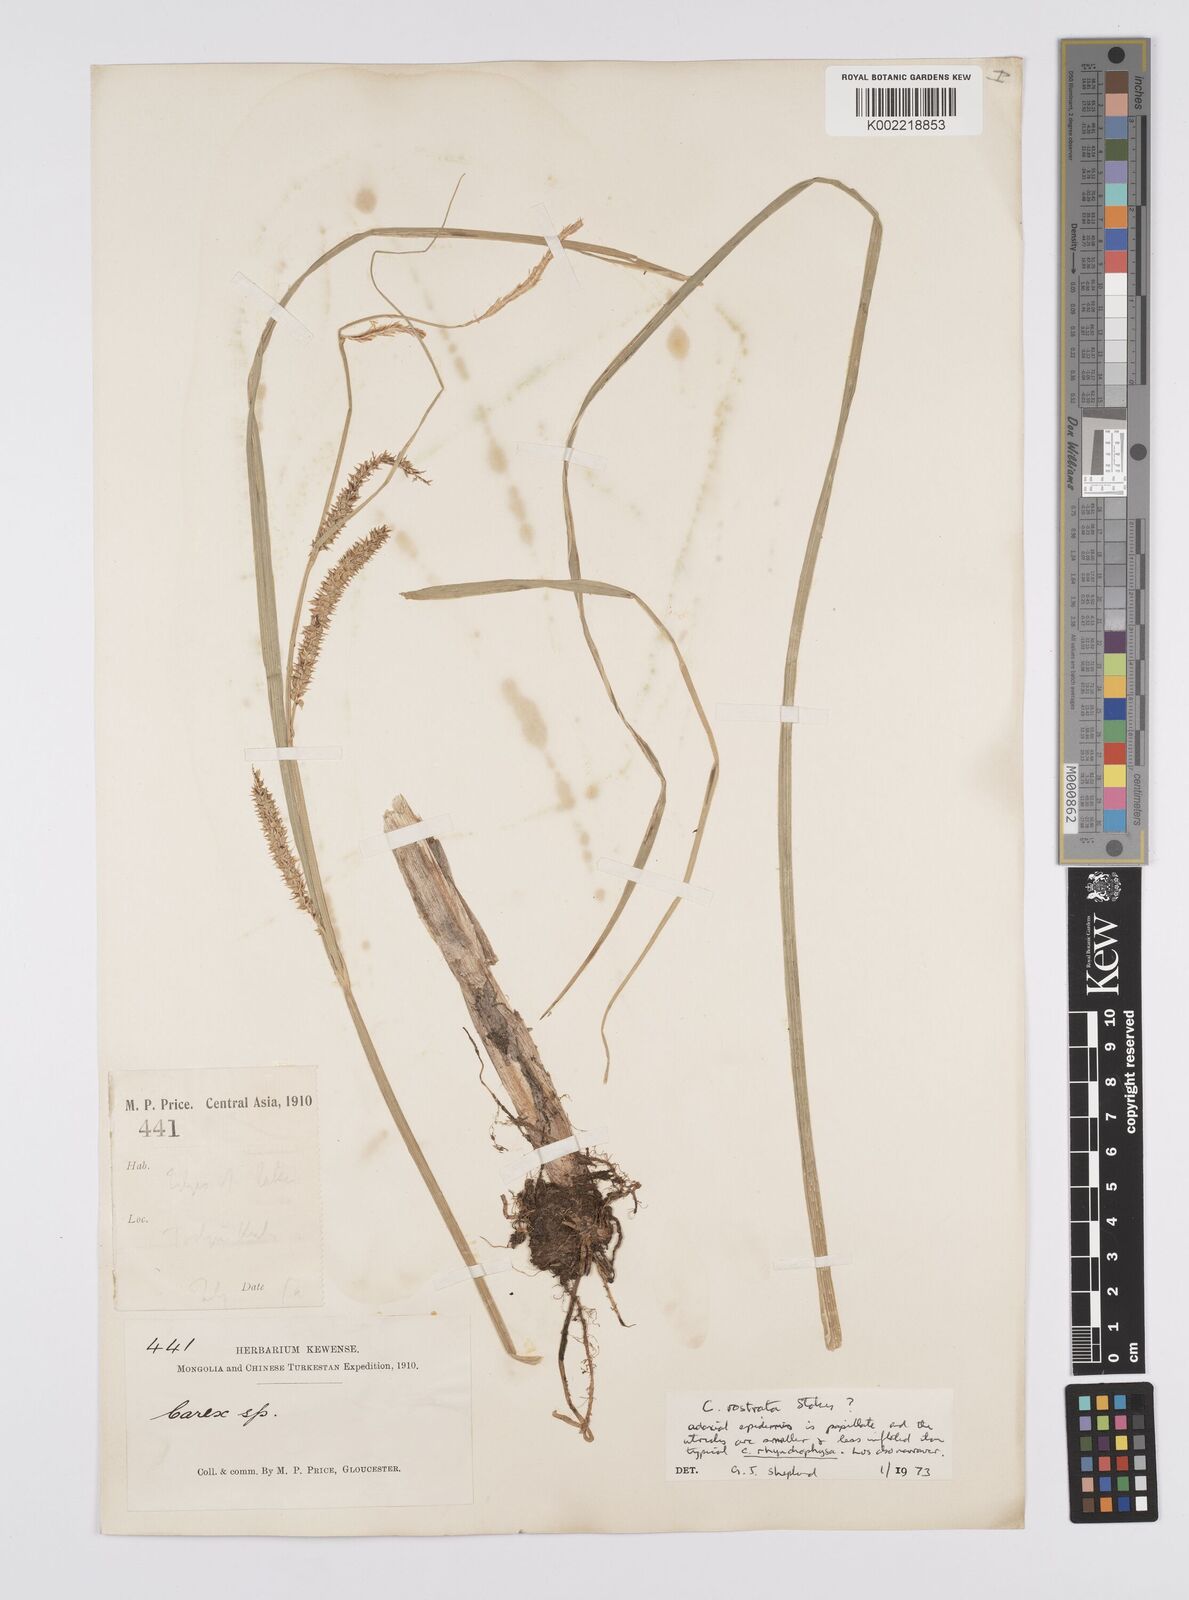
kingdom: Plantae
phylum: Tracheophyta
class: Liliopsida
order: Poales
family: Cyperaceae
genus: Carex
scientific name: Carex michauxiana
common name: Michaux's sedge
